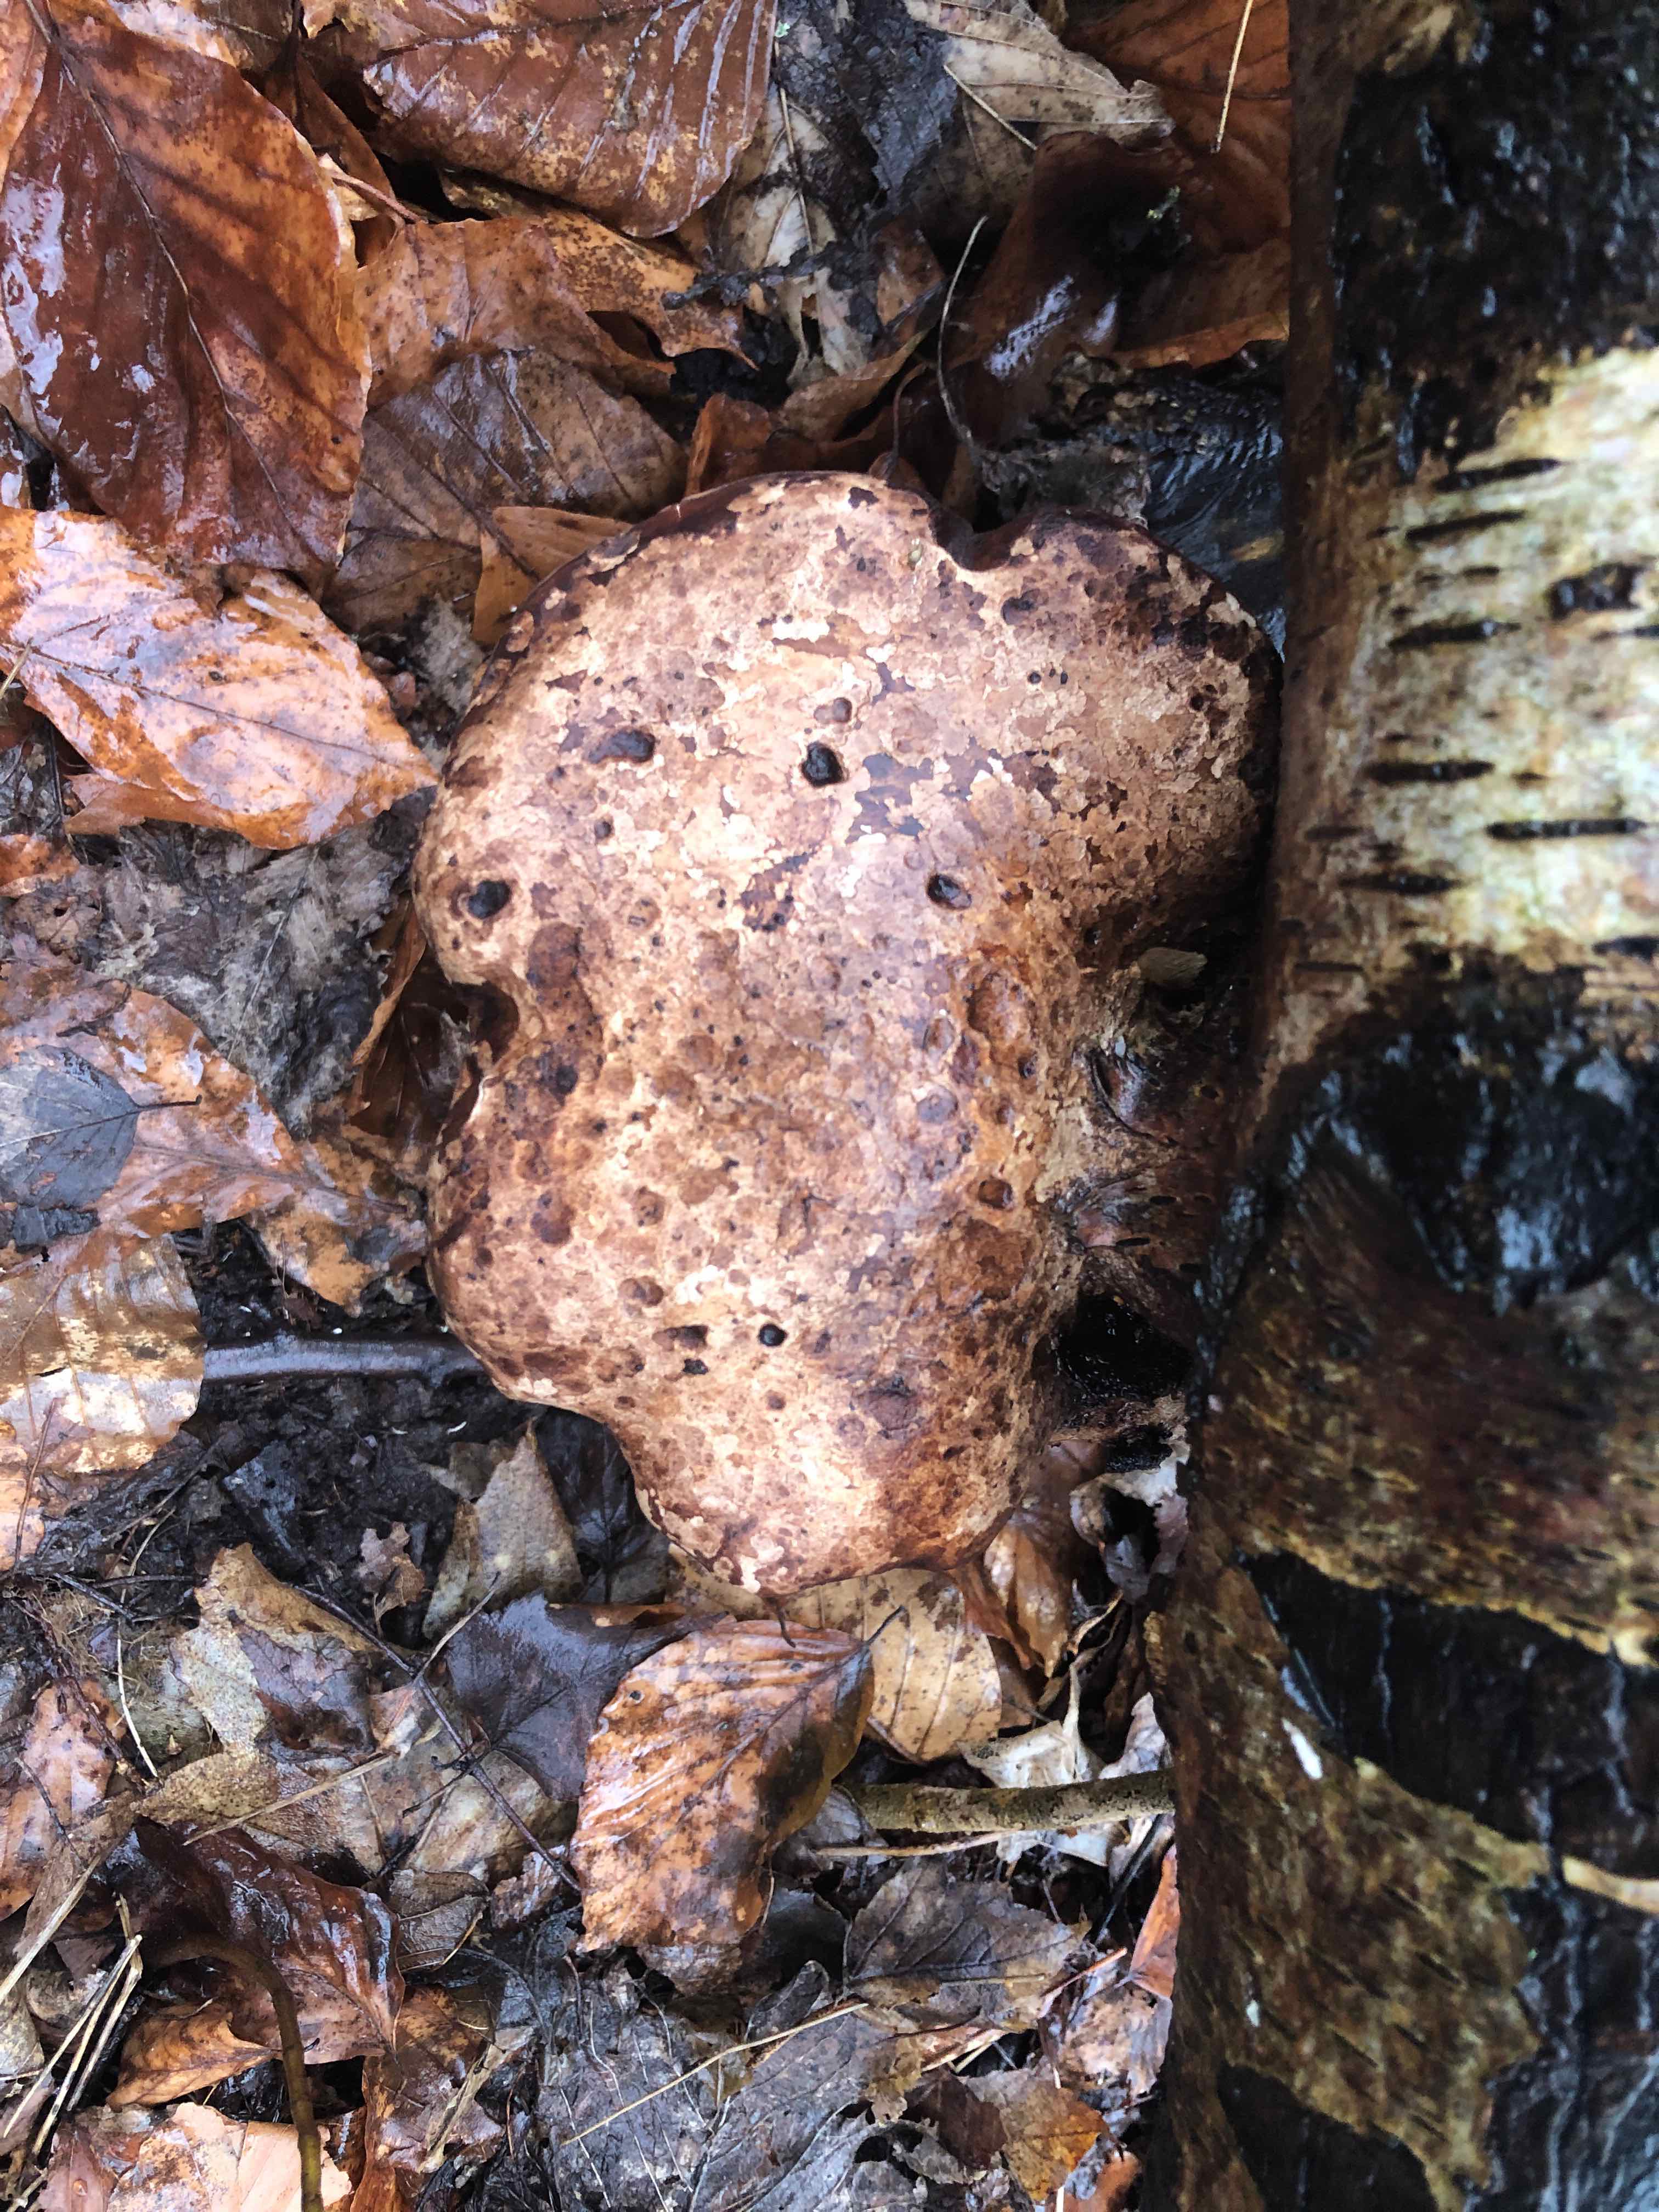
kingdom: Fungi
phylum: Basidiomycota
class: Agaricomycetes
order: Polyporales
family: Fomitopsidaceae
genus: Fomitopsis
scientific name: Fomitopsis betulina
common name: birkeporesvamp
